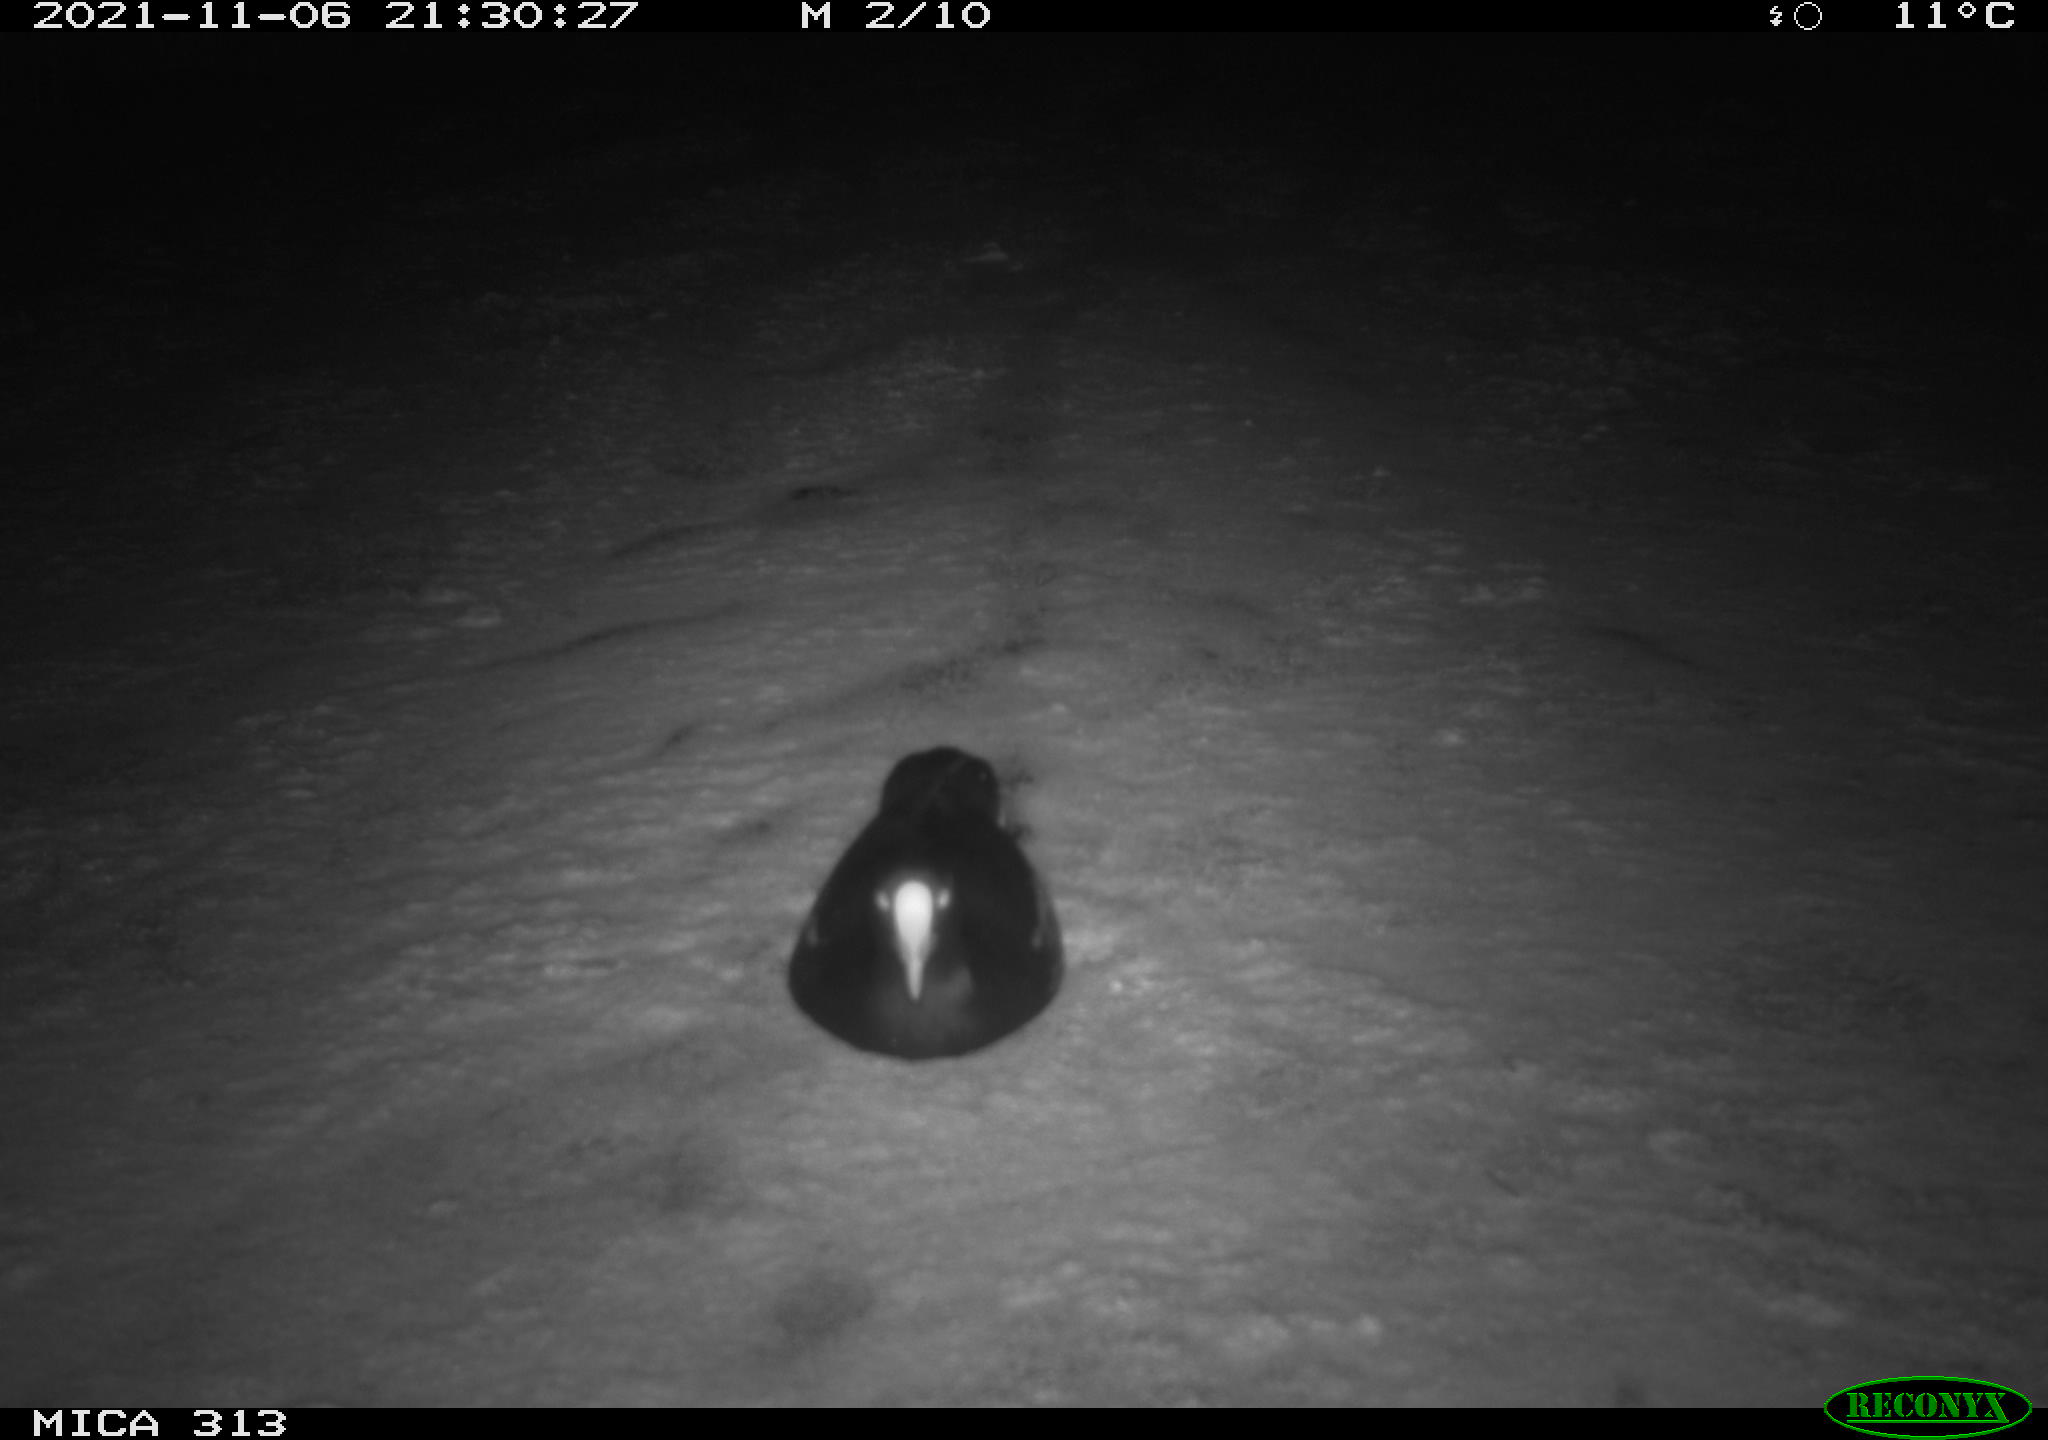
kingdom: Animalia
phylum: Chordata
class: Aves
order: Gruiformes
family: Rallidae
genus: Gallinula
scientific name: Gallinula chloropus
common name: Common moorhen
